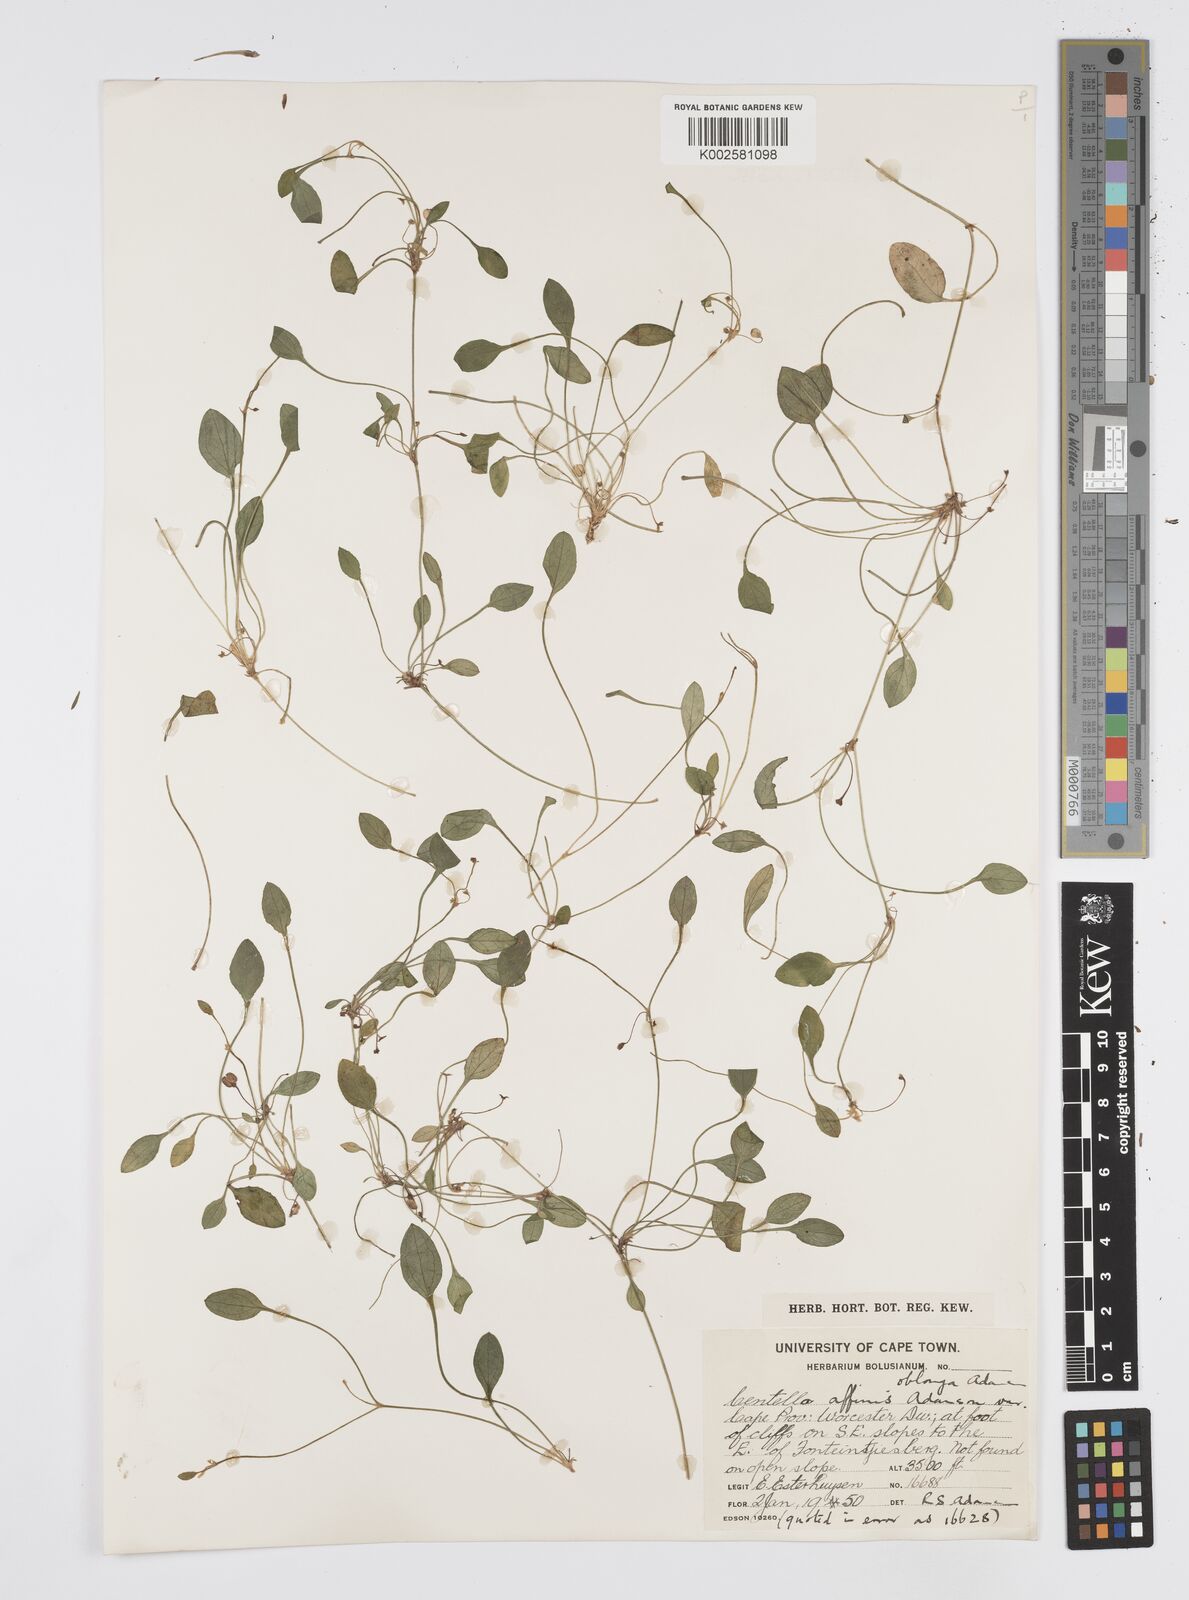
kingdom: Plantae
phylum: Tracheophyta
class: Magnoliopsida
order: Apiales
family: Apiaceae
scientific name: Apiaceae
